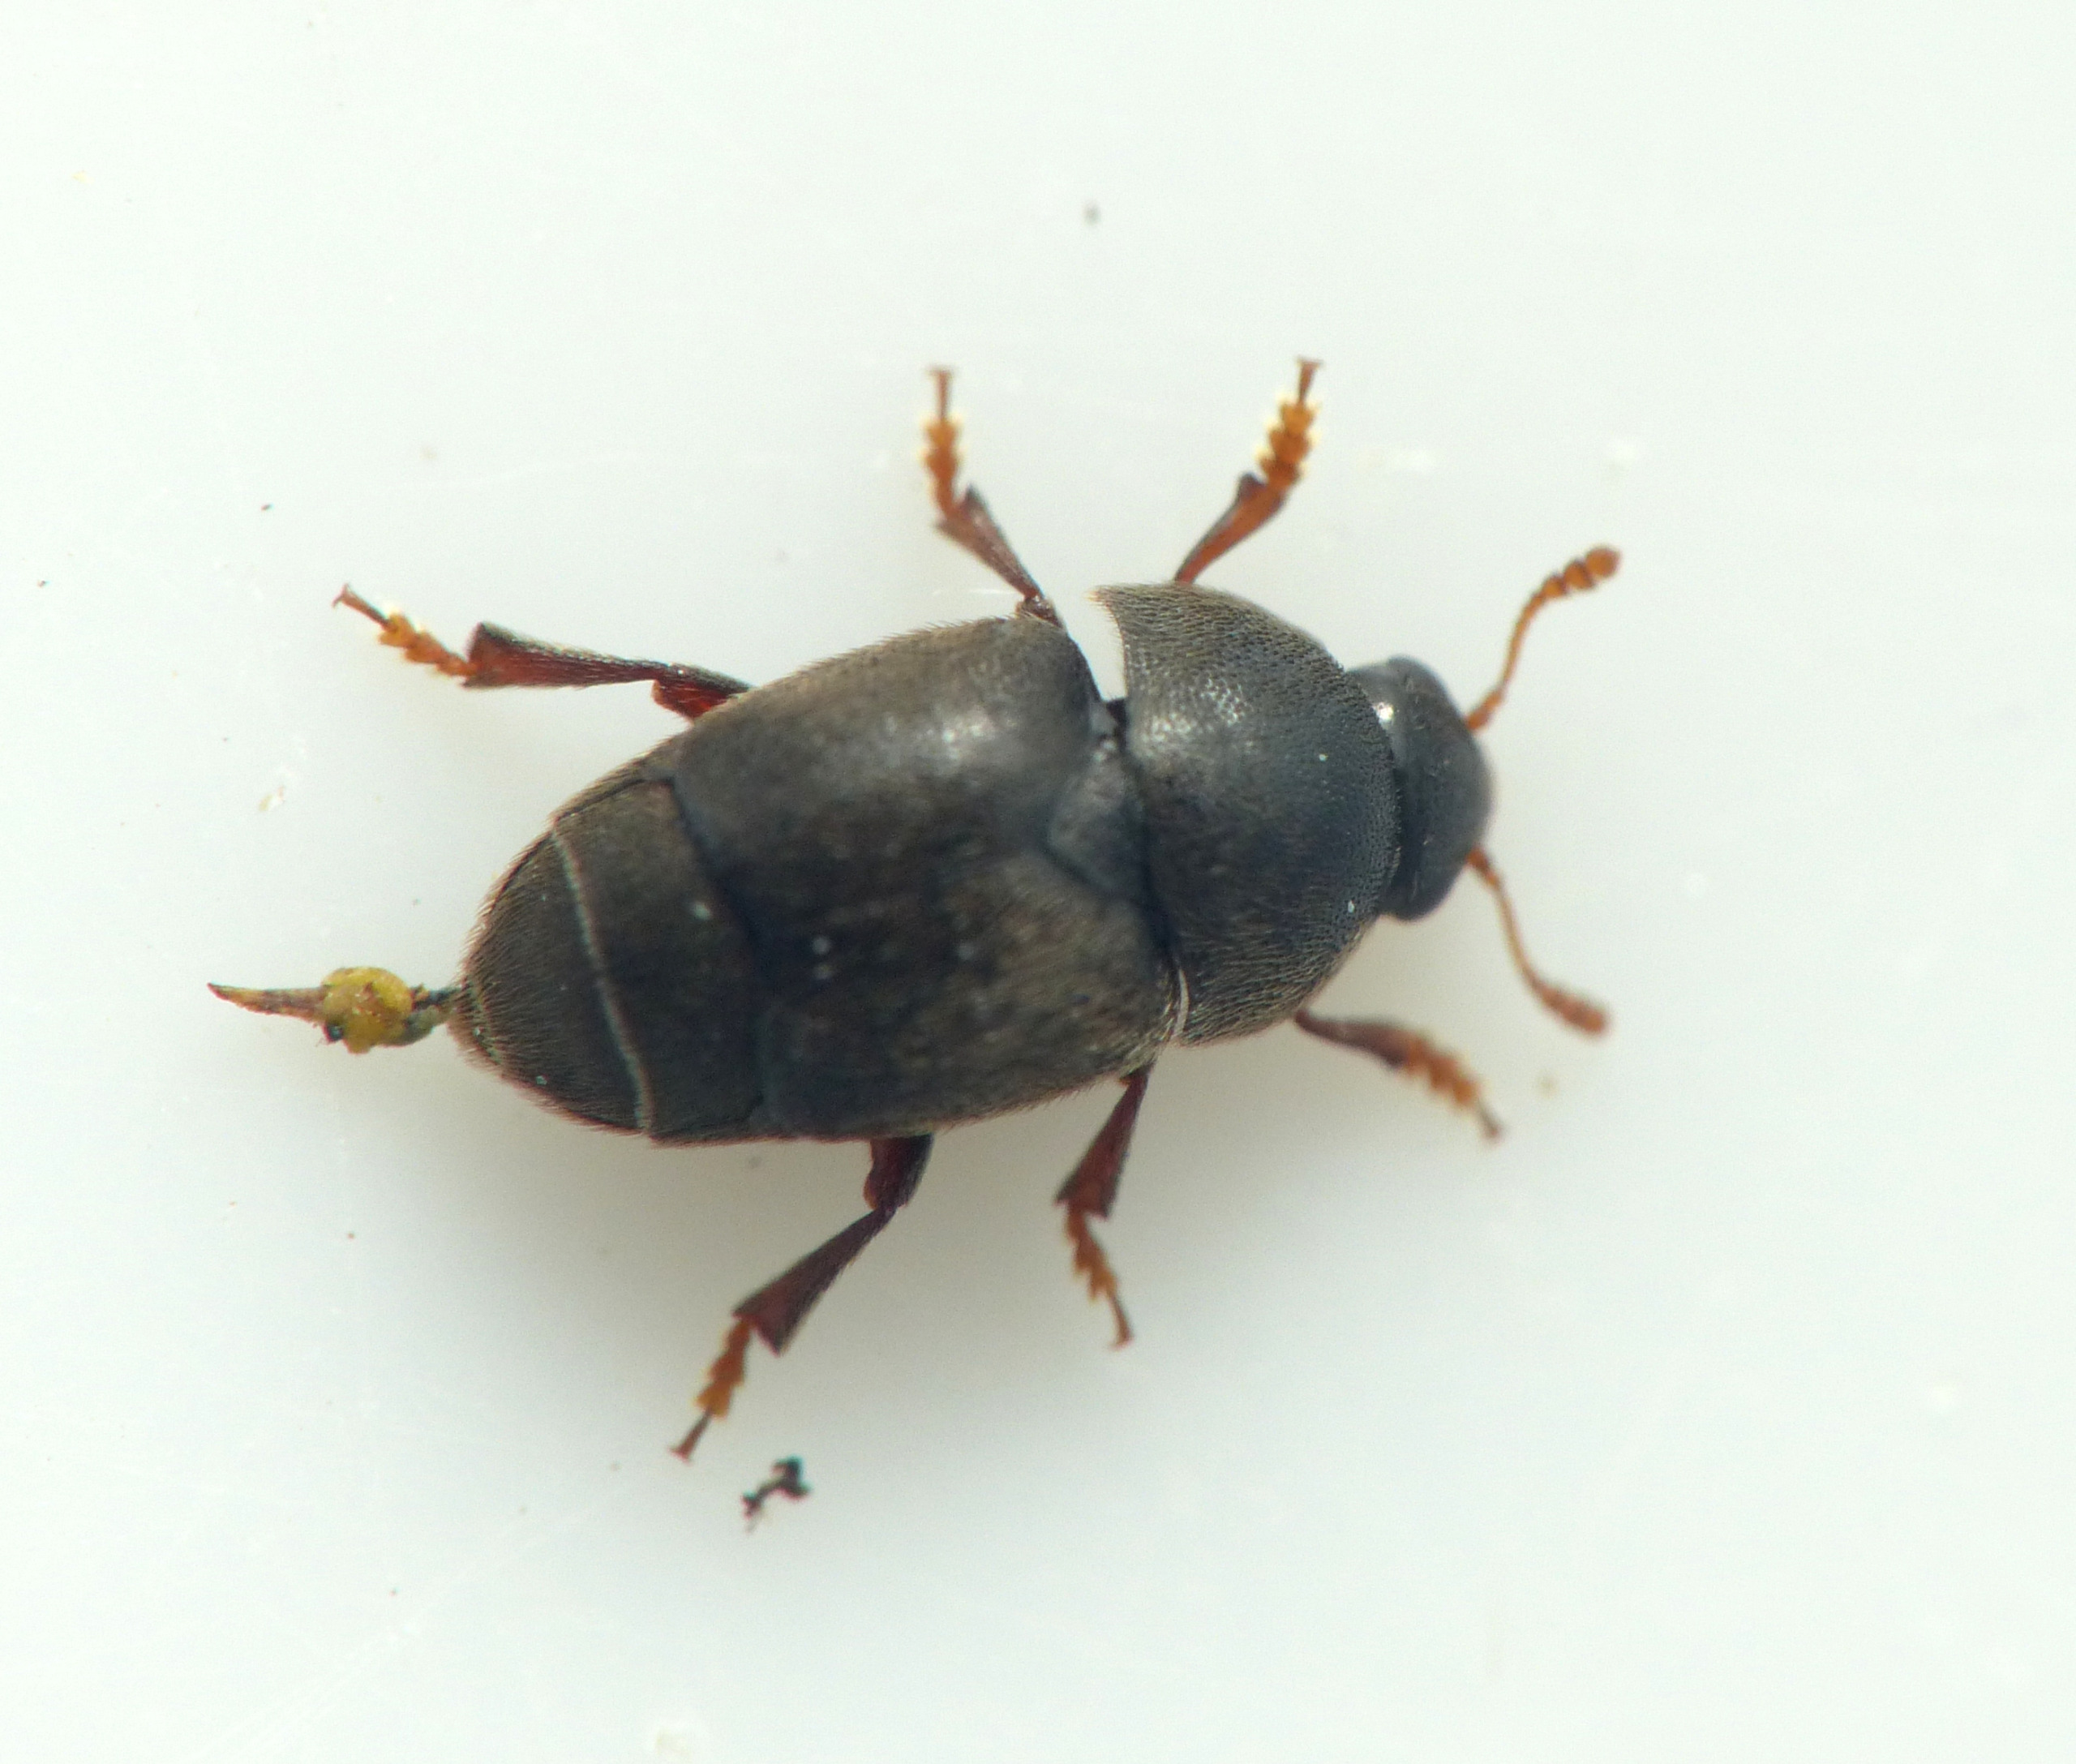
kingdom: Animalia
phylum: Arthropoda
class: Insecta
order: Coleoptera
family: Kateretidae
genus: Brachypterolus
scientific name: Brachypterolus pulicarius
